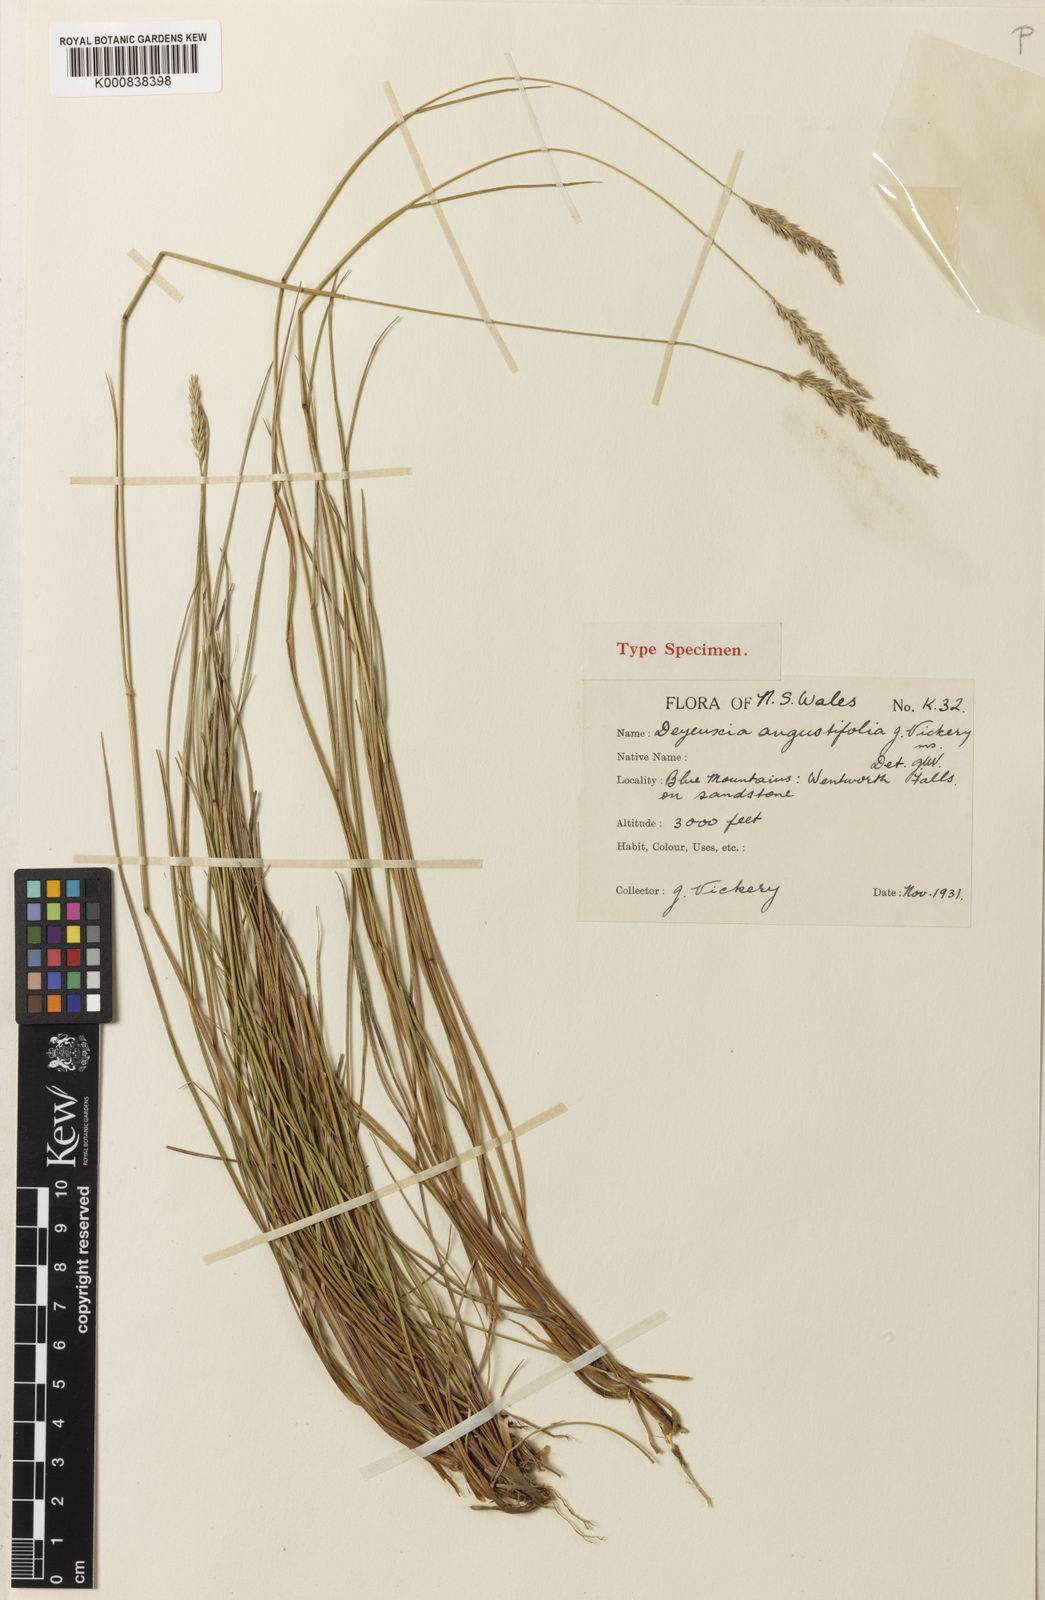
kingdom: Plantae
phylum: Tracheophyta
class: Liliopsida
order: Poales
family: Poaceae
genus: Calamagrostis
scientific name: Calamagrostis angustifolia
